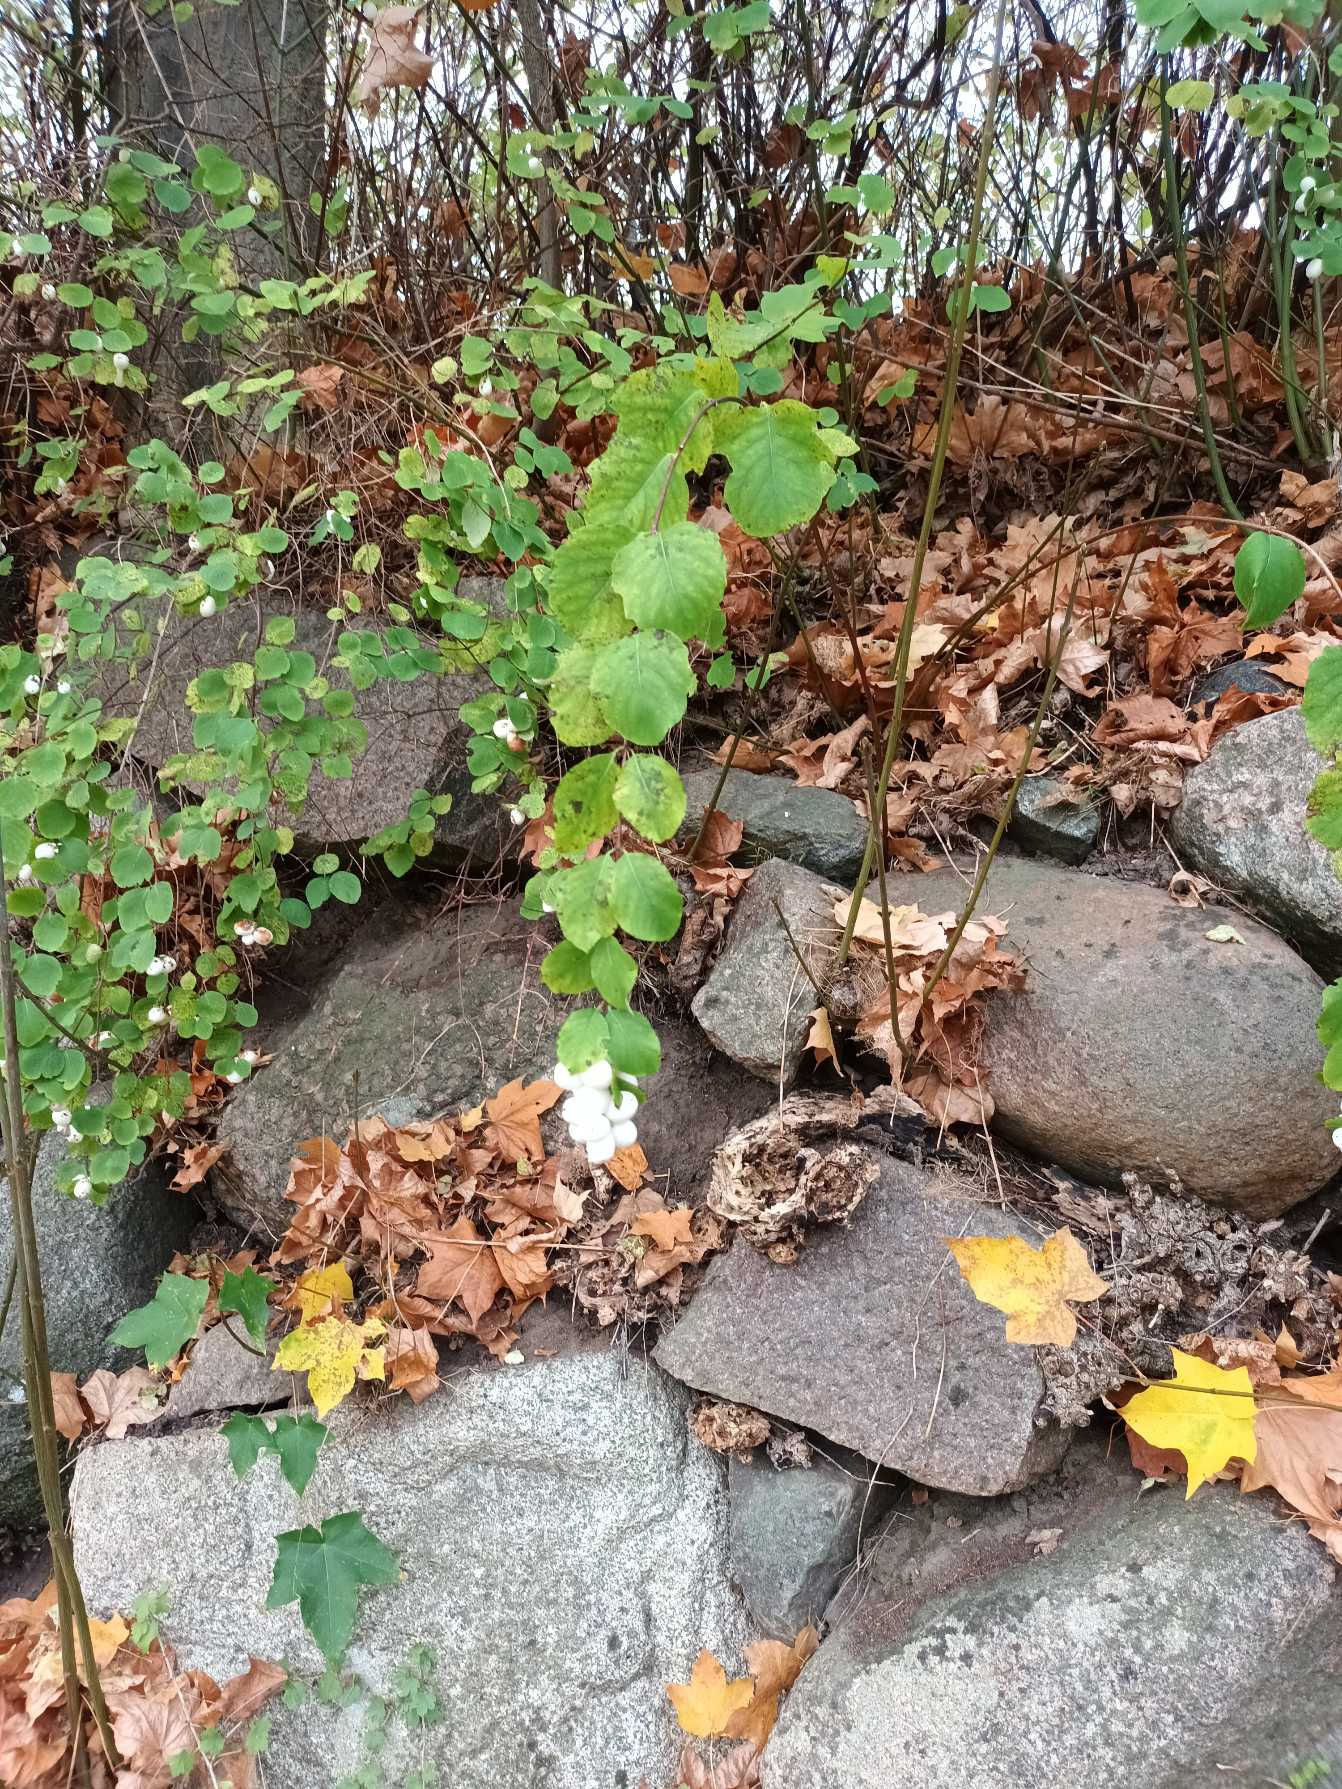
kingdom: Plantae
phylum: Tracheophyta
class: Magnoliopsida
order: Dipsacales
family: Caprifoliaceae
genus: Symphoricarpos
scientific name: Symphoricarpos albus
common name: Almindelig snebær
